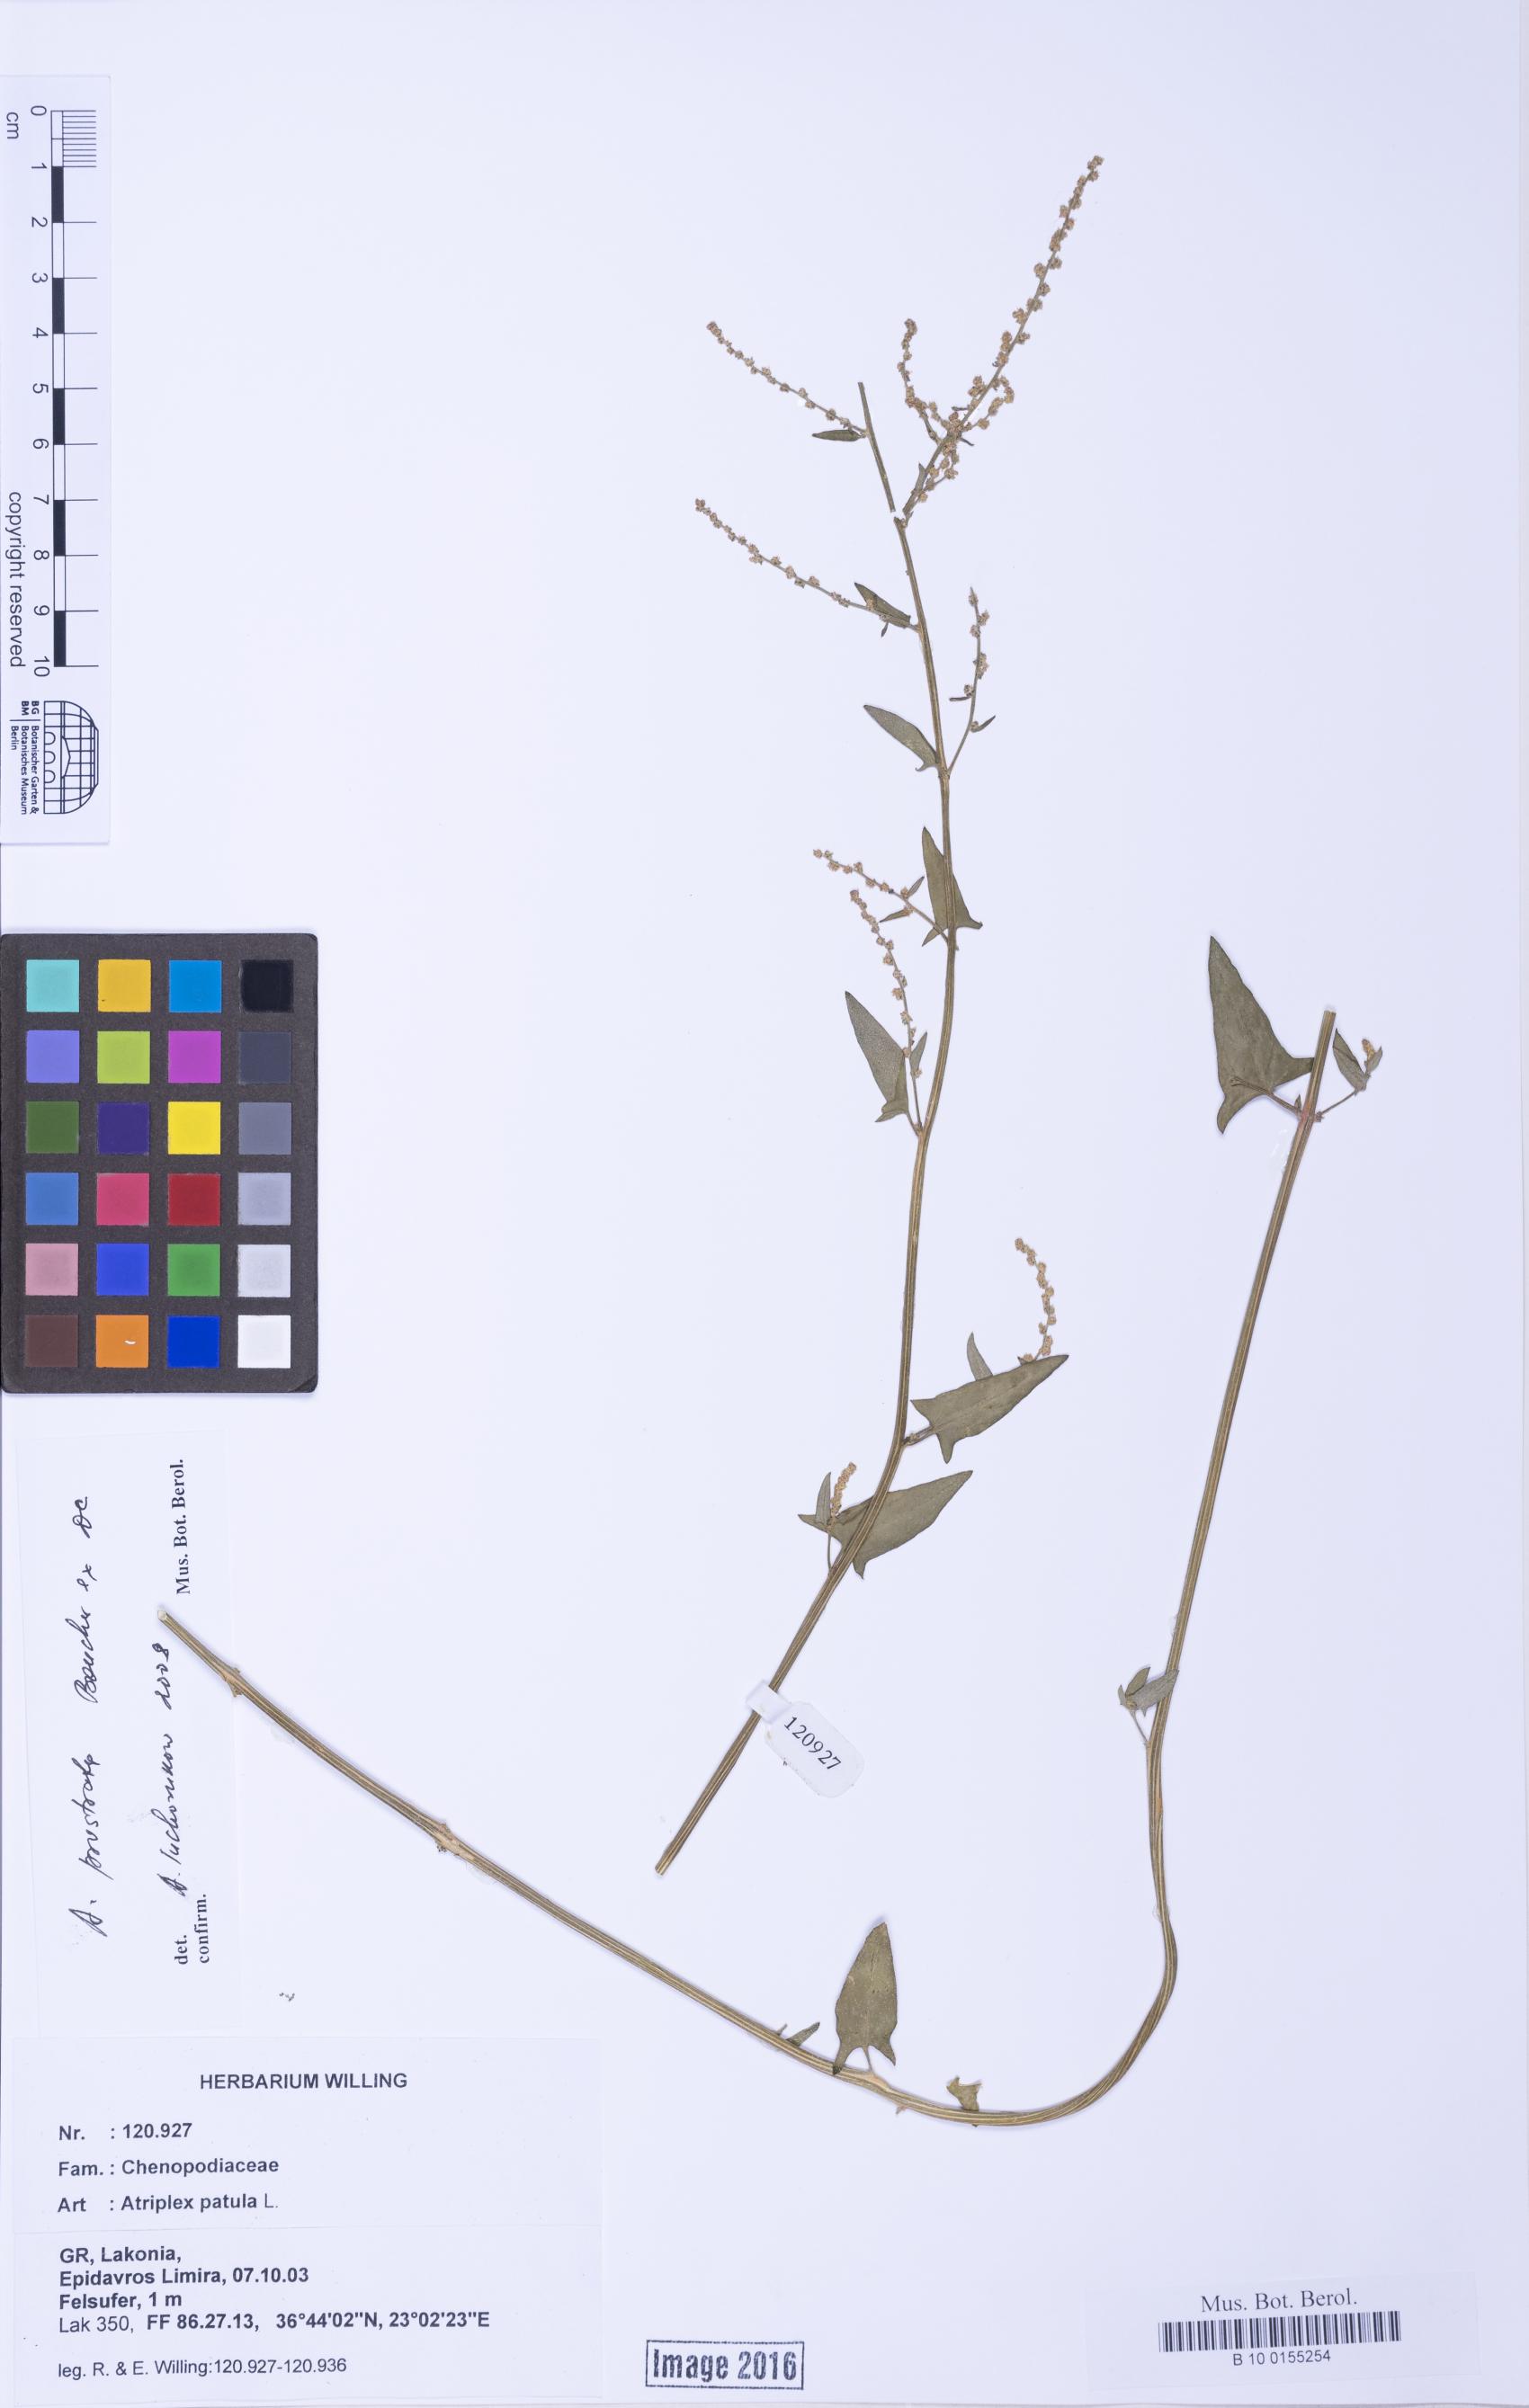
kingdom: Plantae
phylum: Tracheophyta
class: Magnoliopsida
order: Caryophyllales
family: Amaranthaceae
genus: Atriplex
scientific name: Atriplex prostrata
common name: Spear-leaved orache
